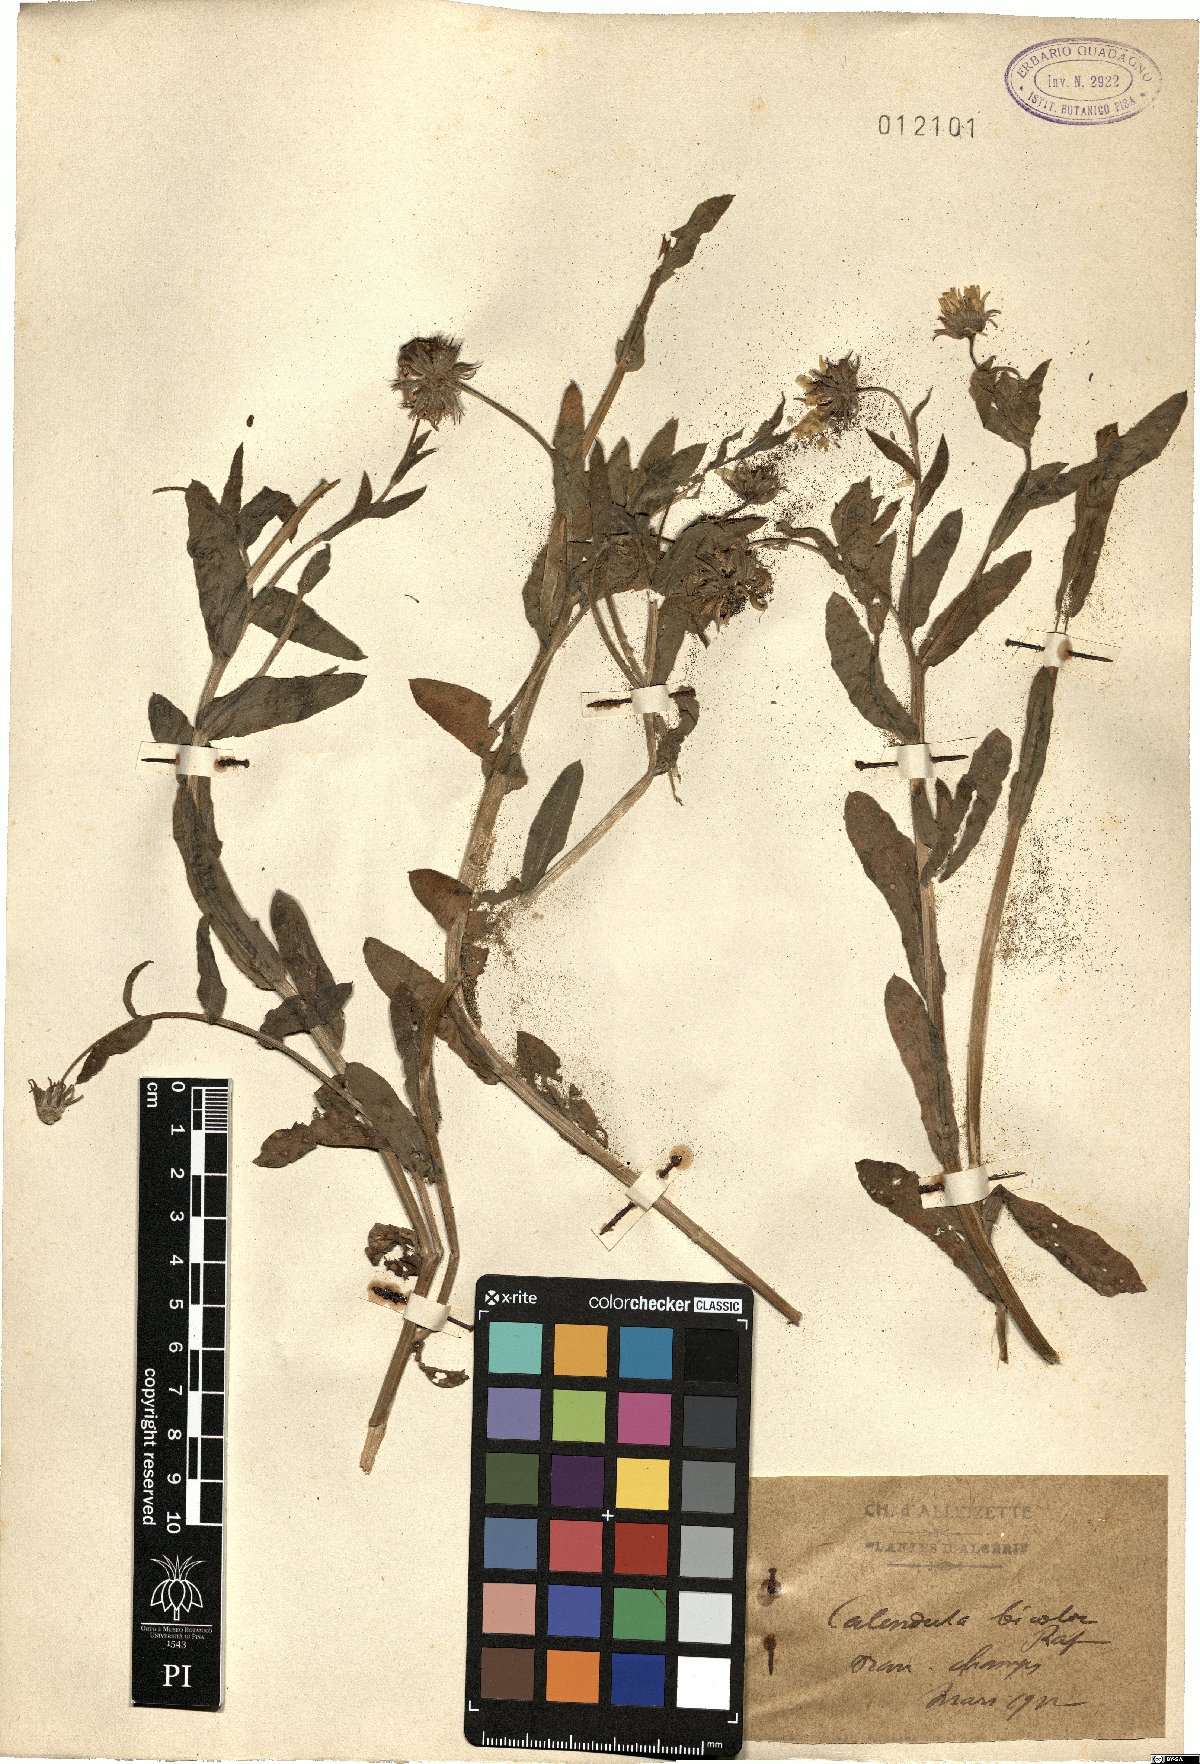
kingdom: Plantae
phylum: Tracheophyta
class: Magnoliopsida
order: Asterales
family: Asteraceae
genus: Calendula
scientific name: Calendula arvensis
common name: Field marigold
